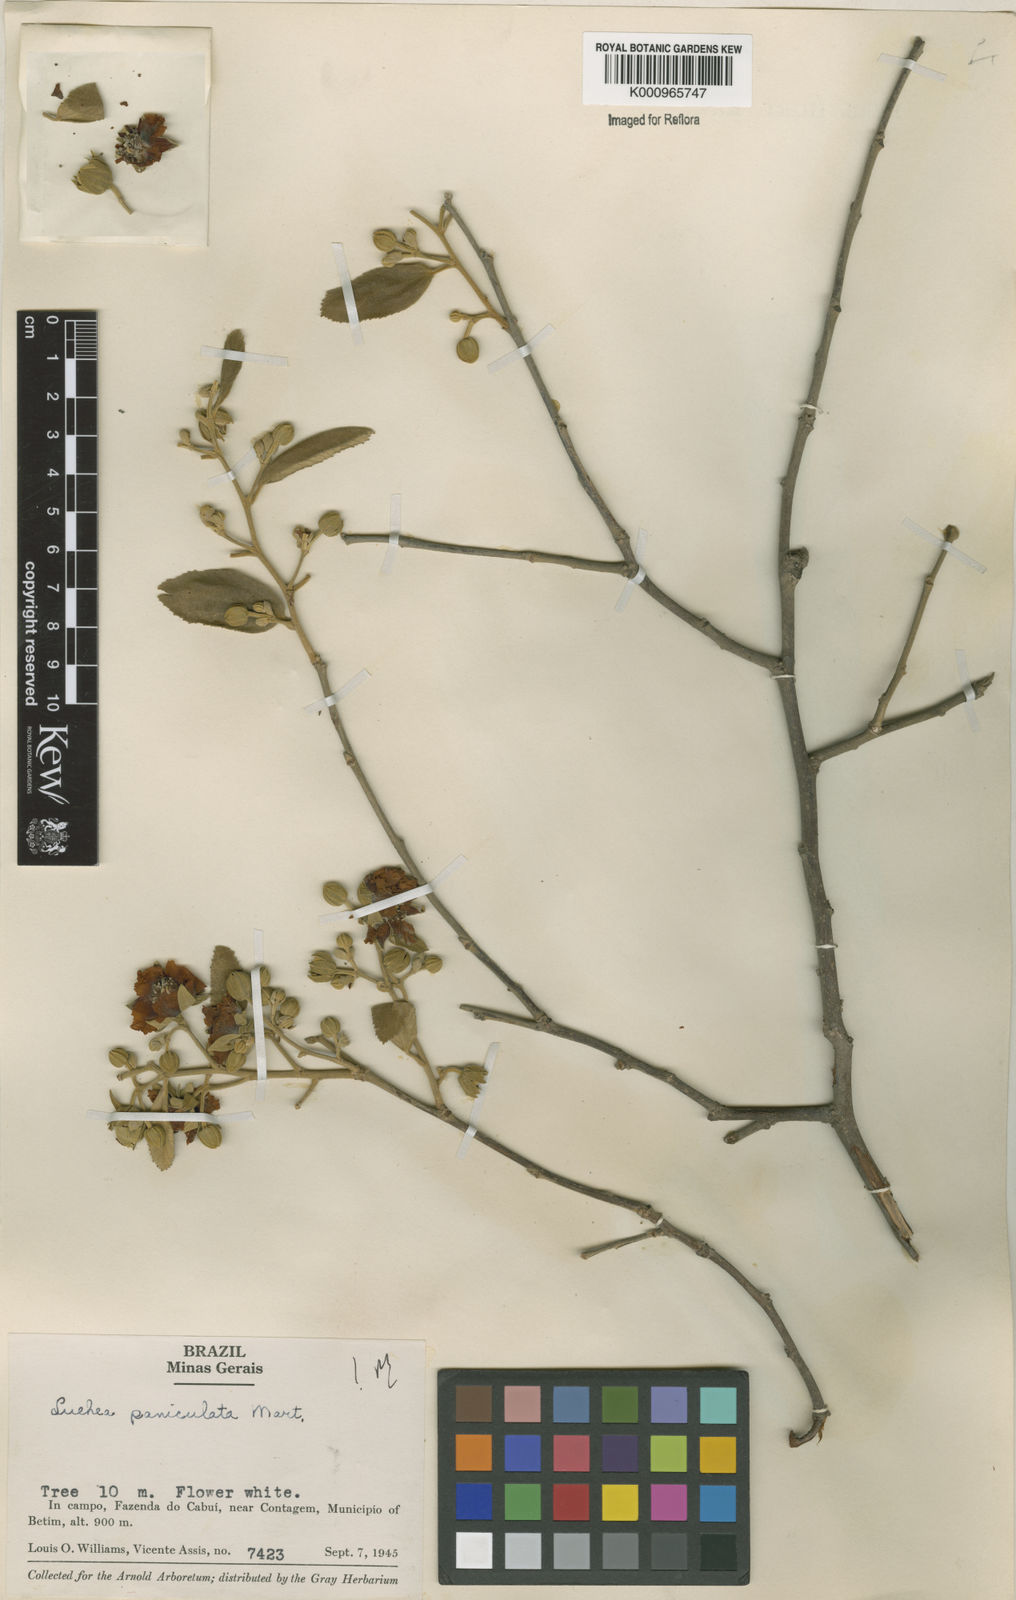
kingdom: Plantae
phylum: Tracheophyta
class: Magnoliopsida
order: Malvales
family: Malvaceae
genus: Luehea
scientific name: Luehea paniculata
